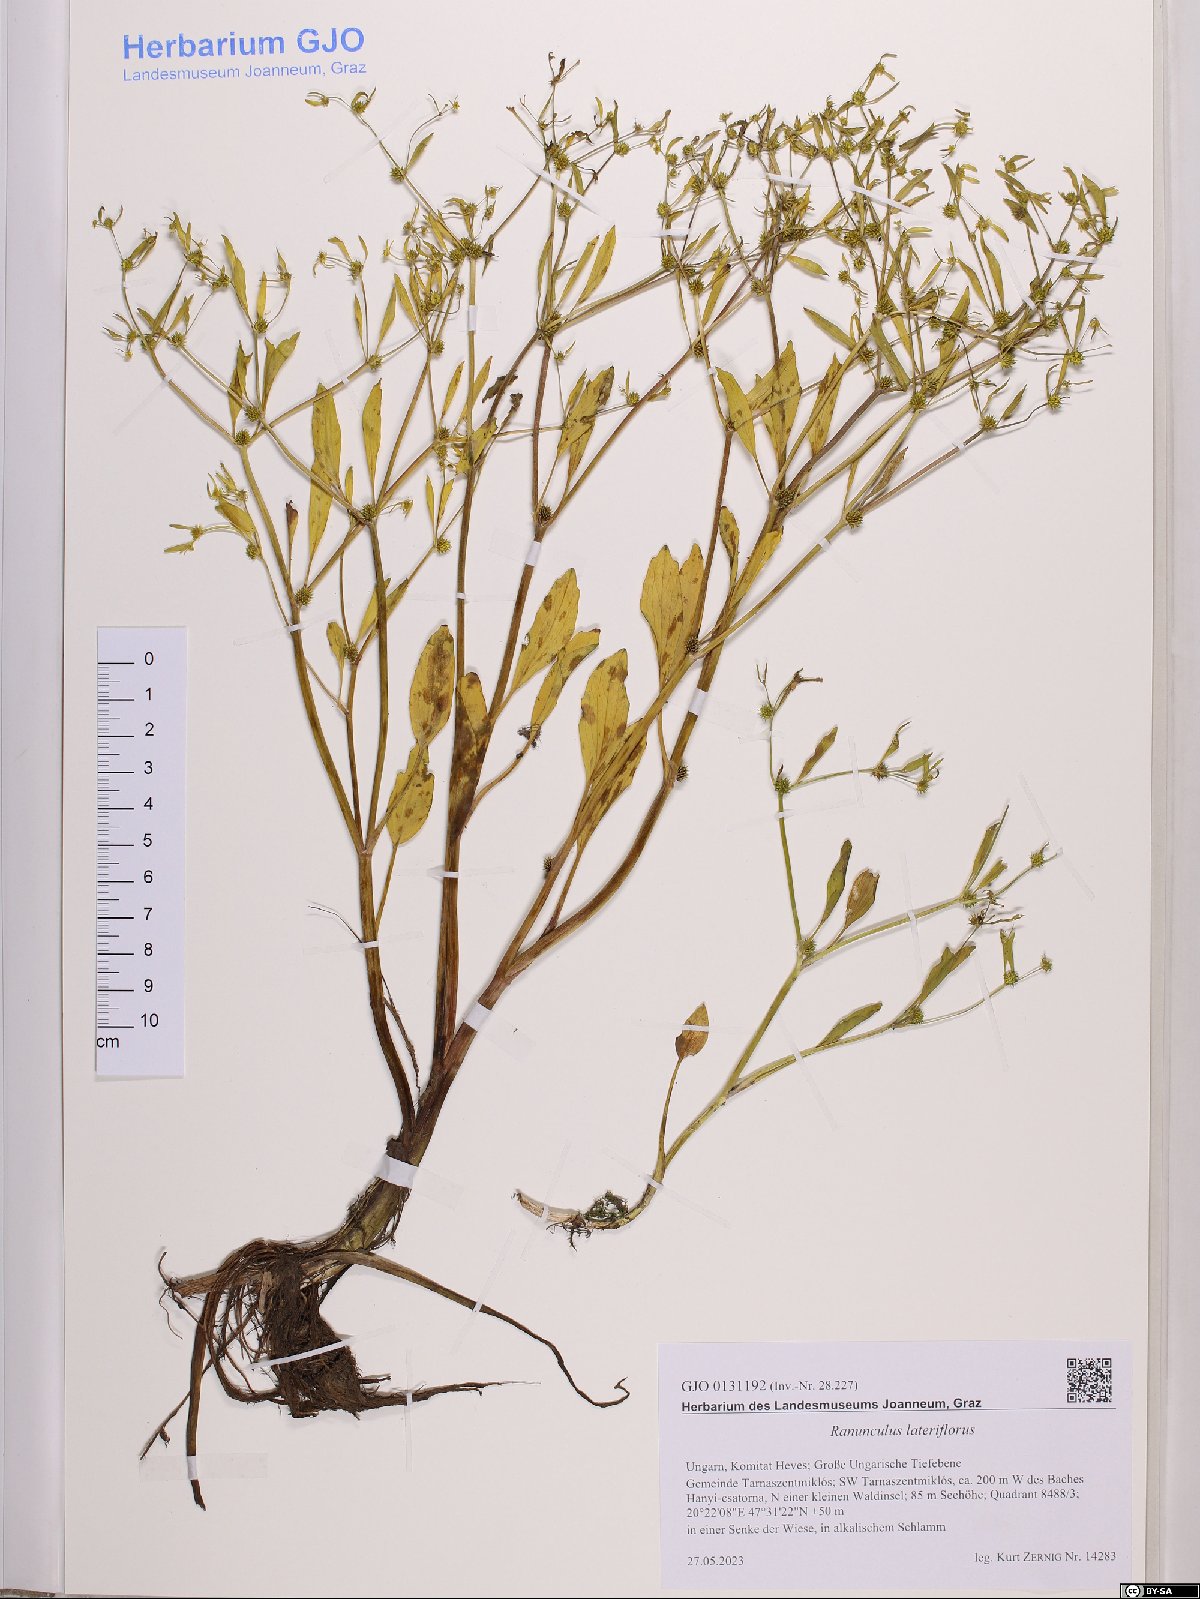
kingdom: Plantae
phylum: Tracheophyta
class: Magnoliopsida
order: Ranunculales
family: Ranunculaceae
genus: Ranunculus
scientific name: Ranunculus lateriflorus
